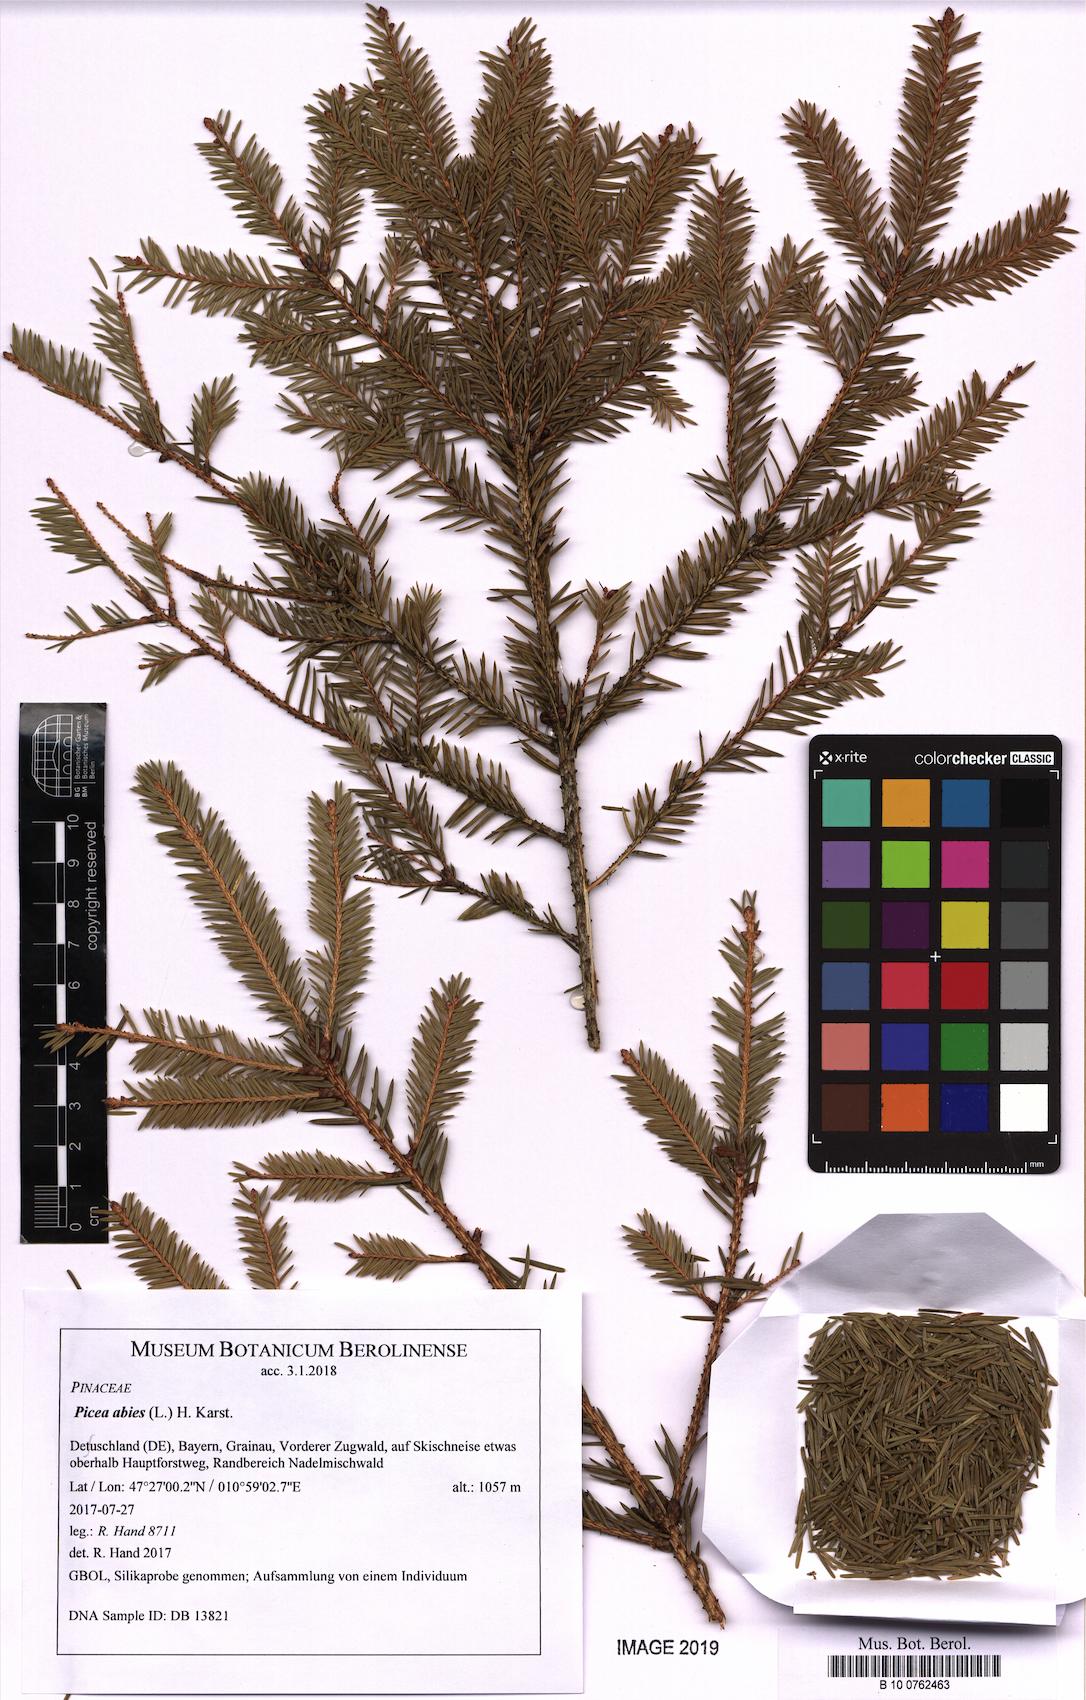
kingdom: Plantae
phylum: Tracheophyta
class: Pinopsida
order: Pinales
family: Pinaceae
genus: Picea
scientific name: Picea abies
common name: Norway spruce
